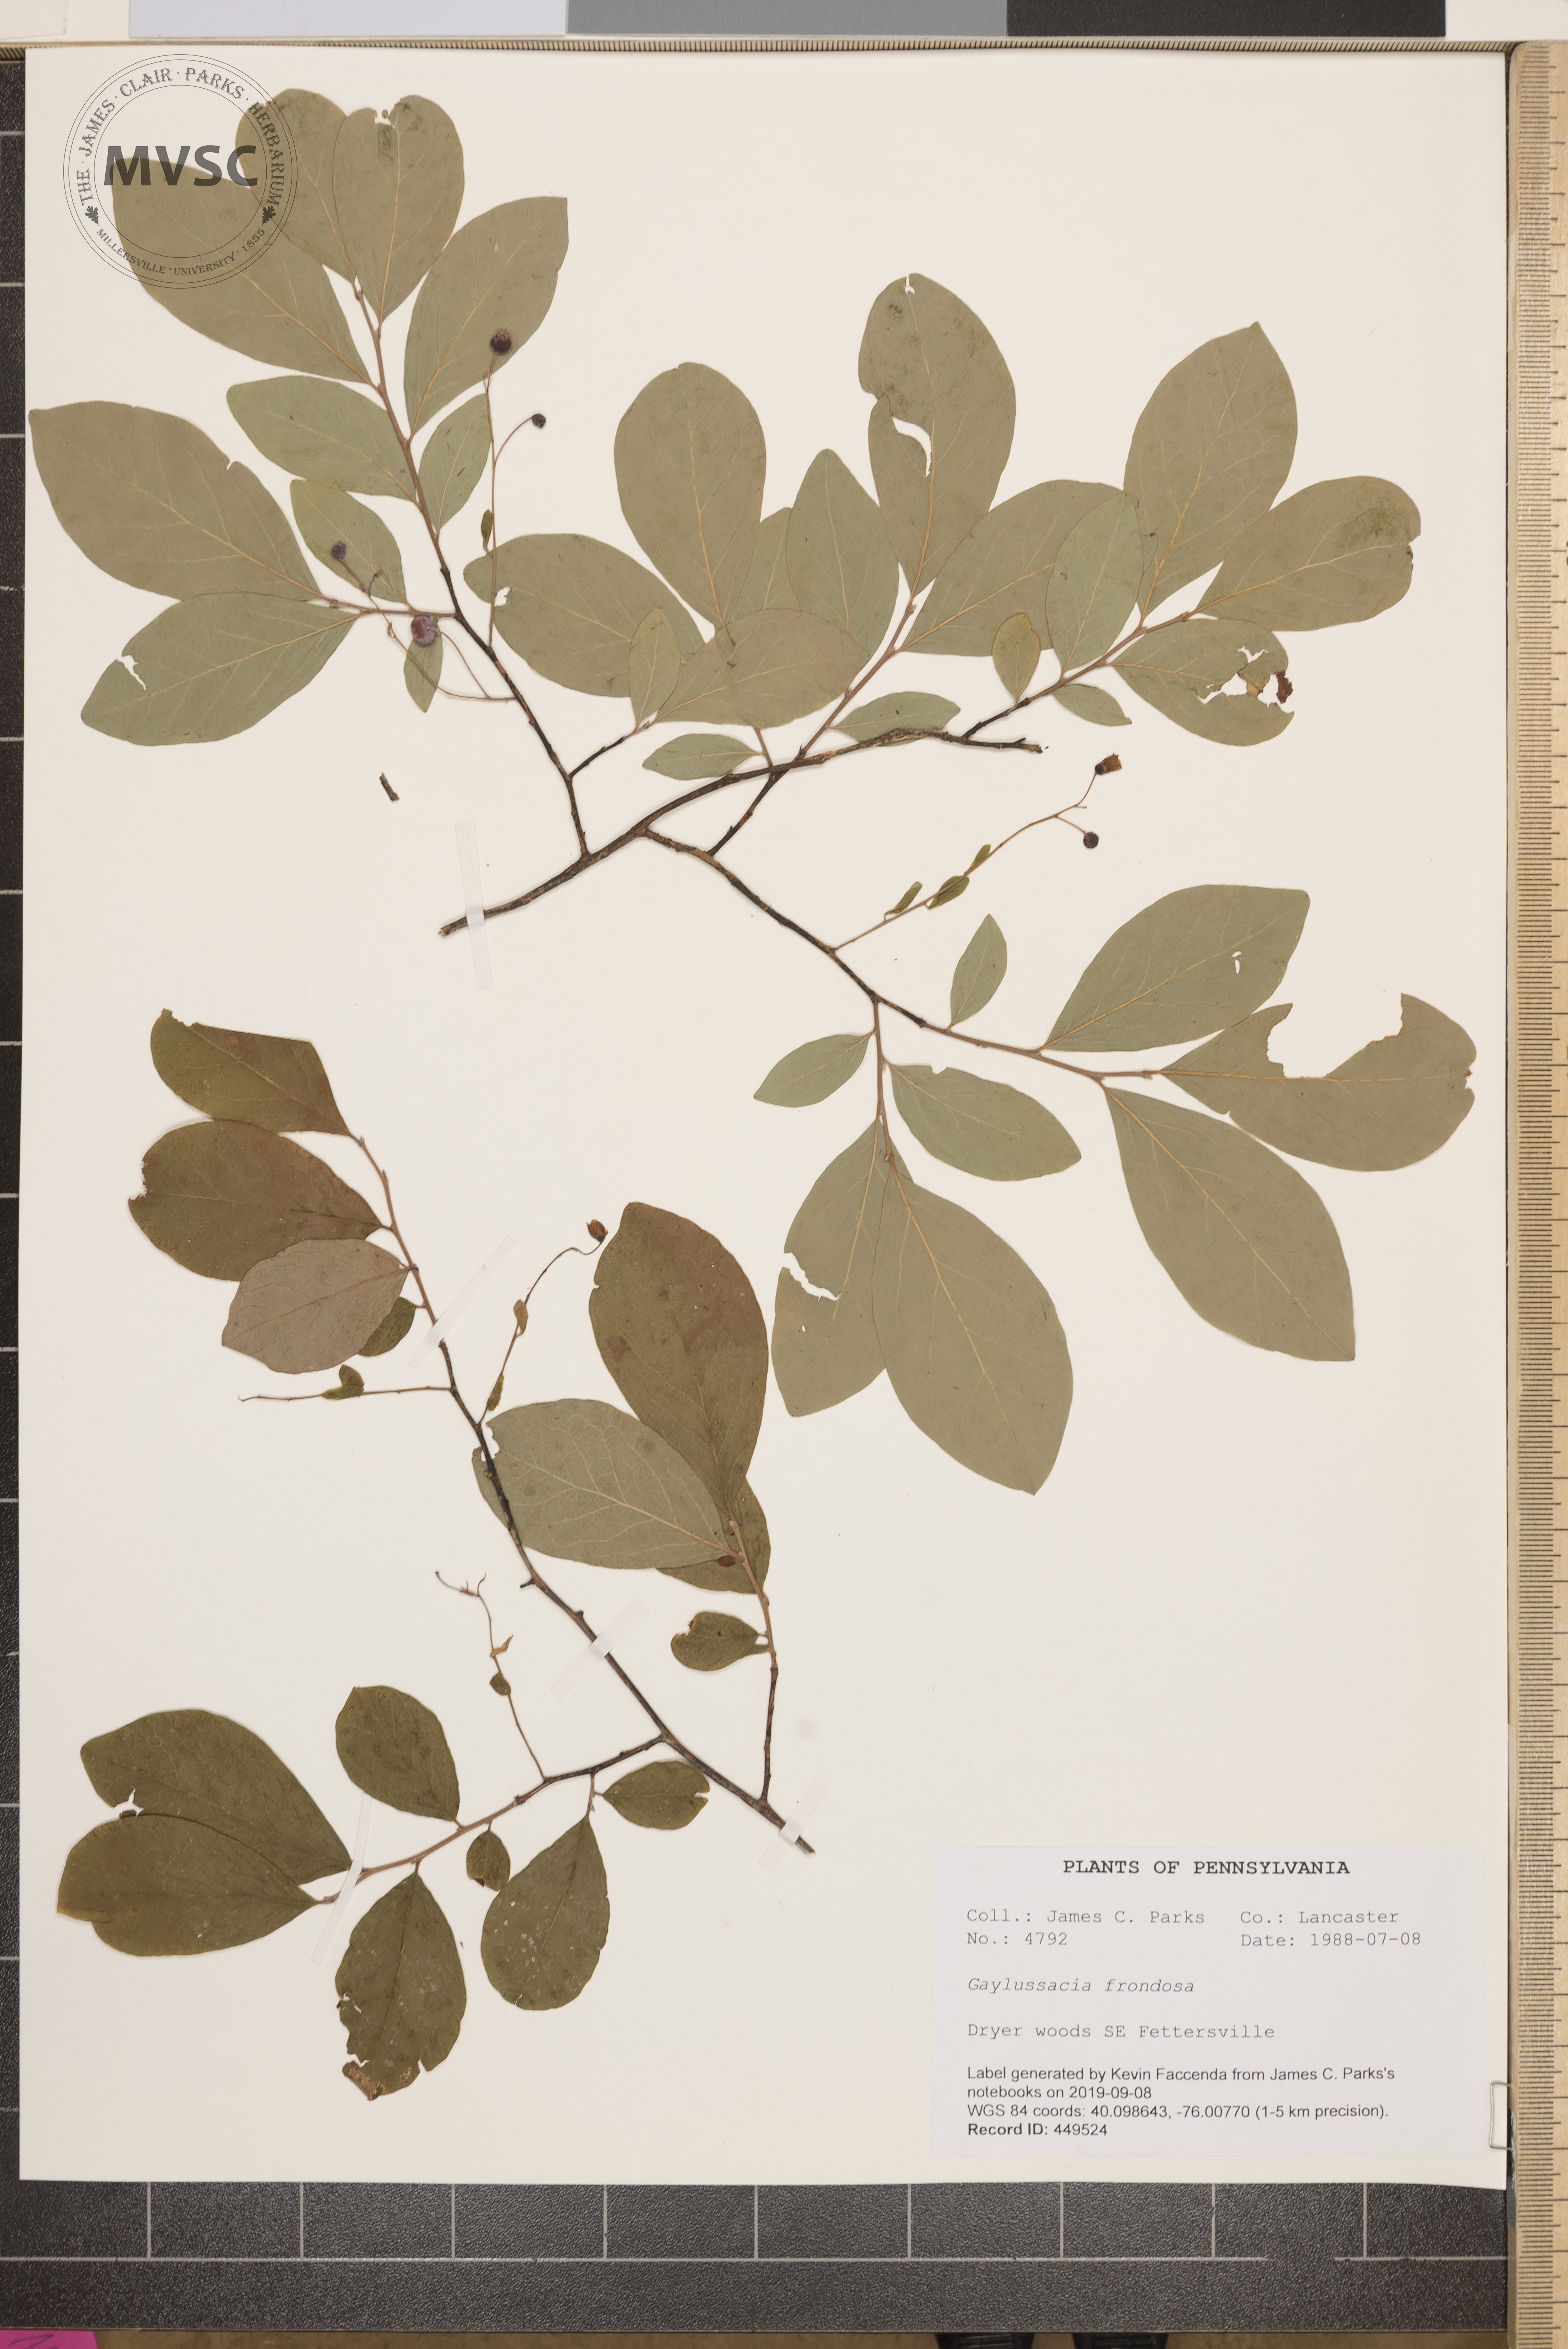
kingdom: Plantae
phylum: Tracheophyta
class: Magnoliopsida
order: Ericales
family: Ericaceae
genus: Gaylussacia
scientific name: Gaylussacia frondosa
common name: Dangleberry
